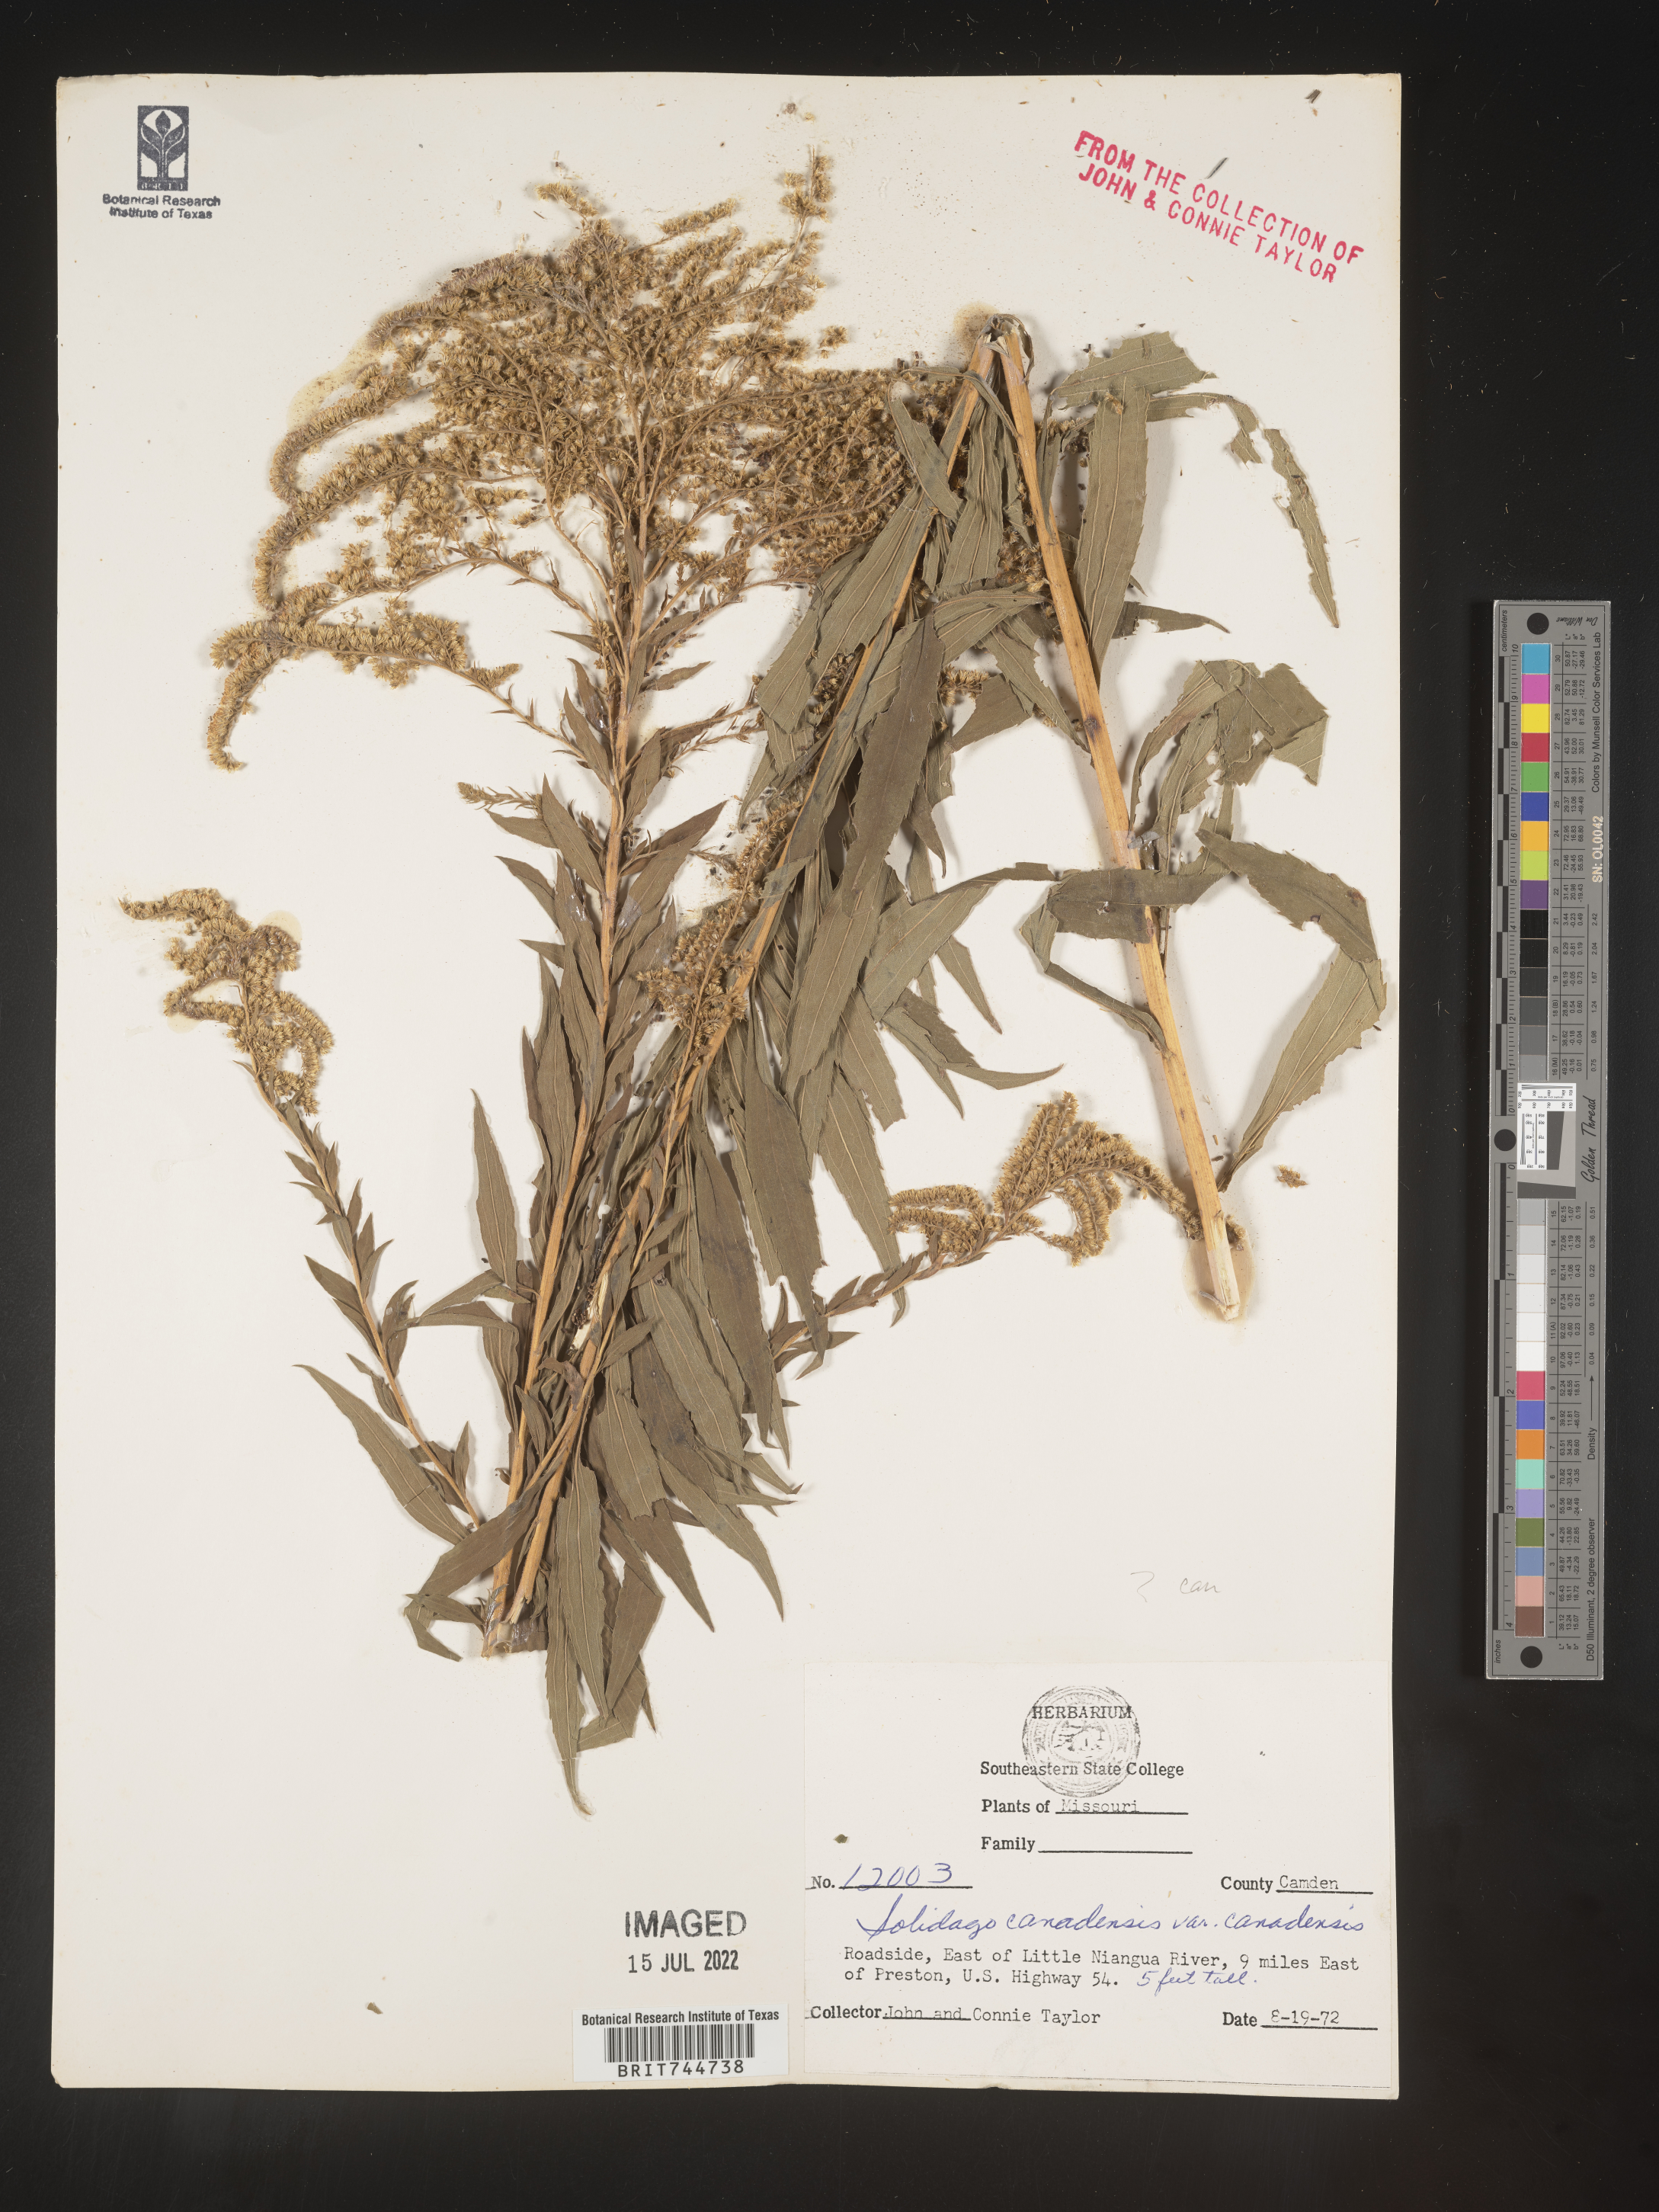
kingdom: Plantae
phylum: Tracheophyta
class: Magnoliopsida
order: Asterales
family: Asteraceae
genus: Solidago
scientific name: Solidago canadensis
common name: Canada goldenrod
